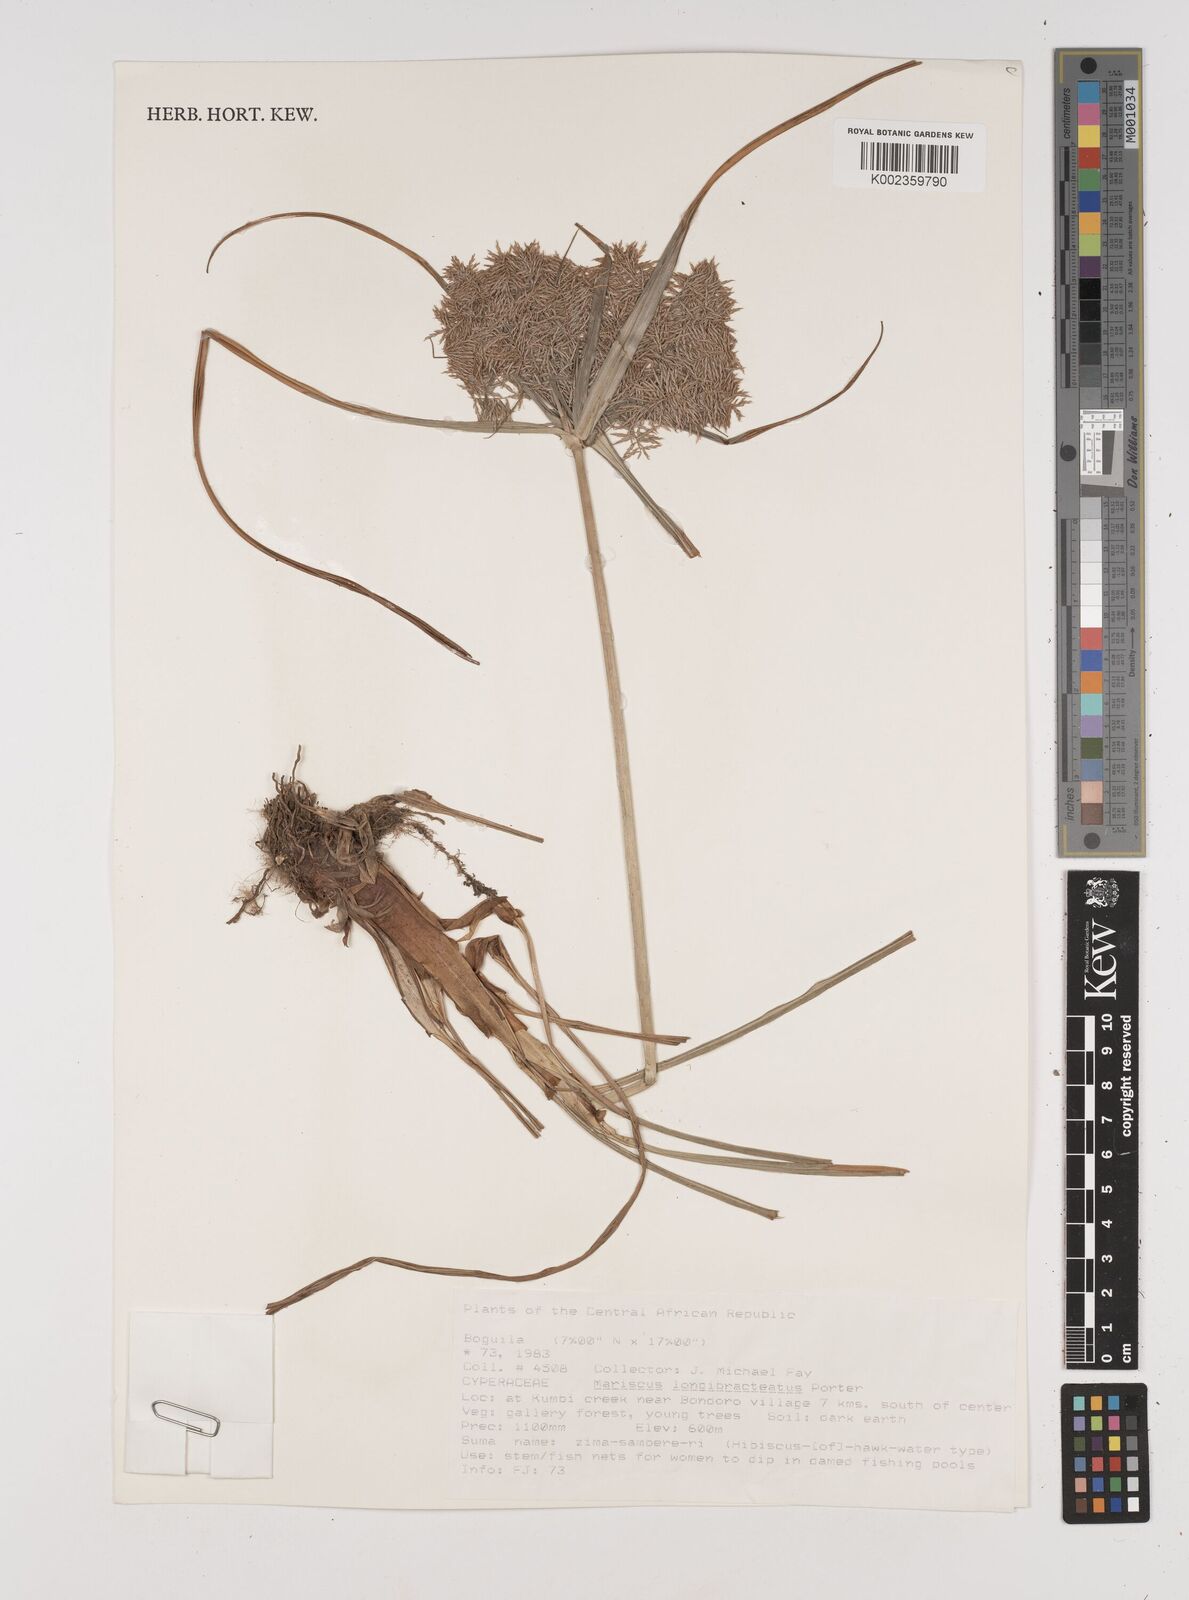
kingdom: Plantae
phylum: Tracheophyta
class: Liliopsida
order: Poales
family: Cyperaceae
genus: Cyperus
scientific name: Cyperus distans
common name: Slender cyperus
